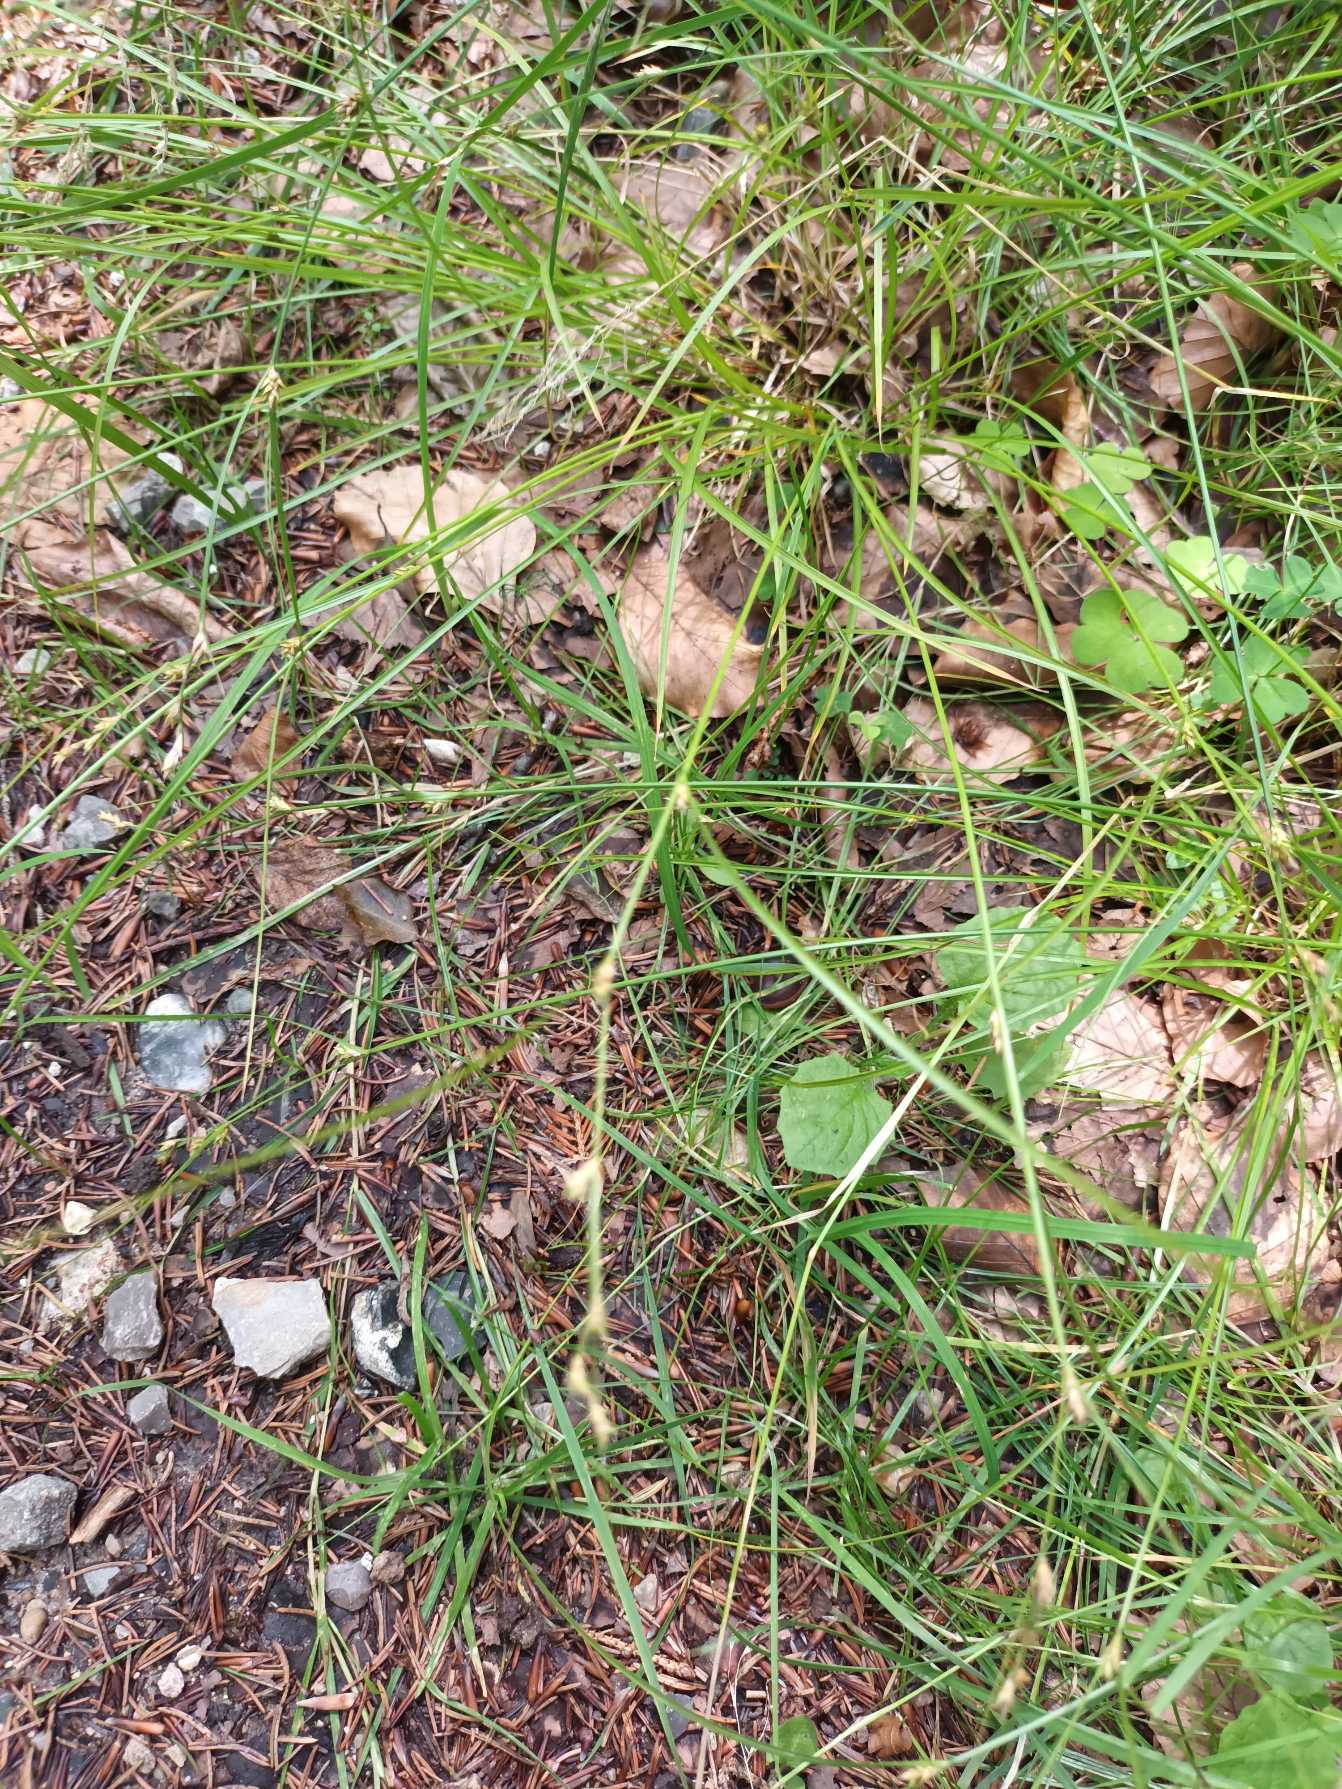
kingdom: Plantae
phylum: Tracheophyta
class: Liliopsida
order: Poales
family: Cyperaceae
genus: Carex
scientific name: Carex remota
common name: Akselblomstret star
